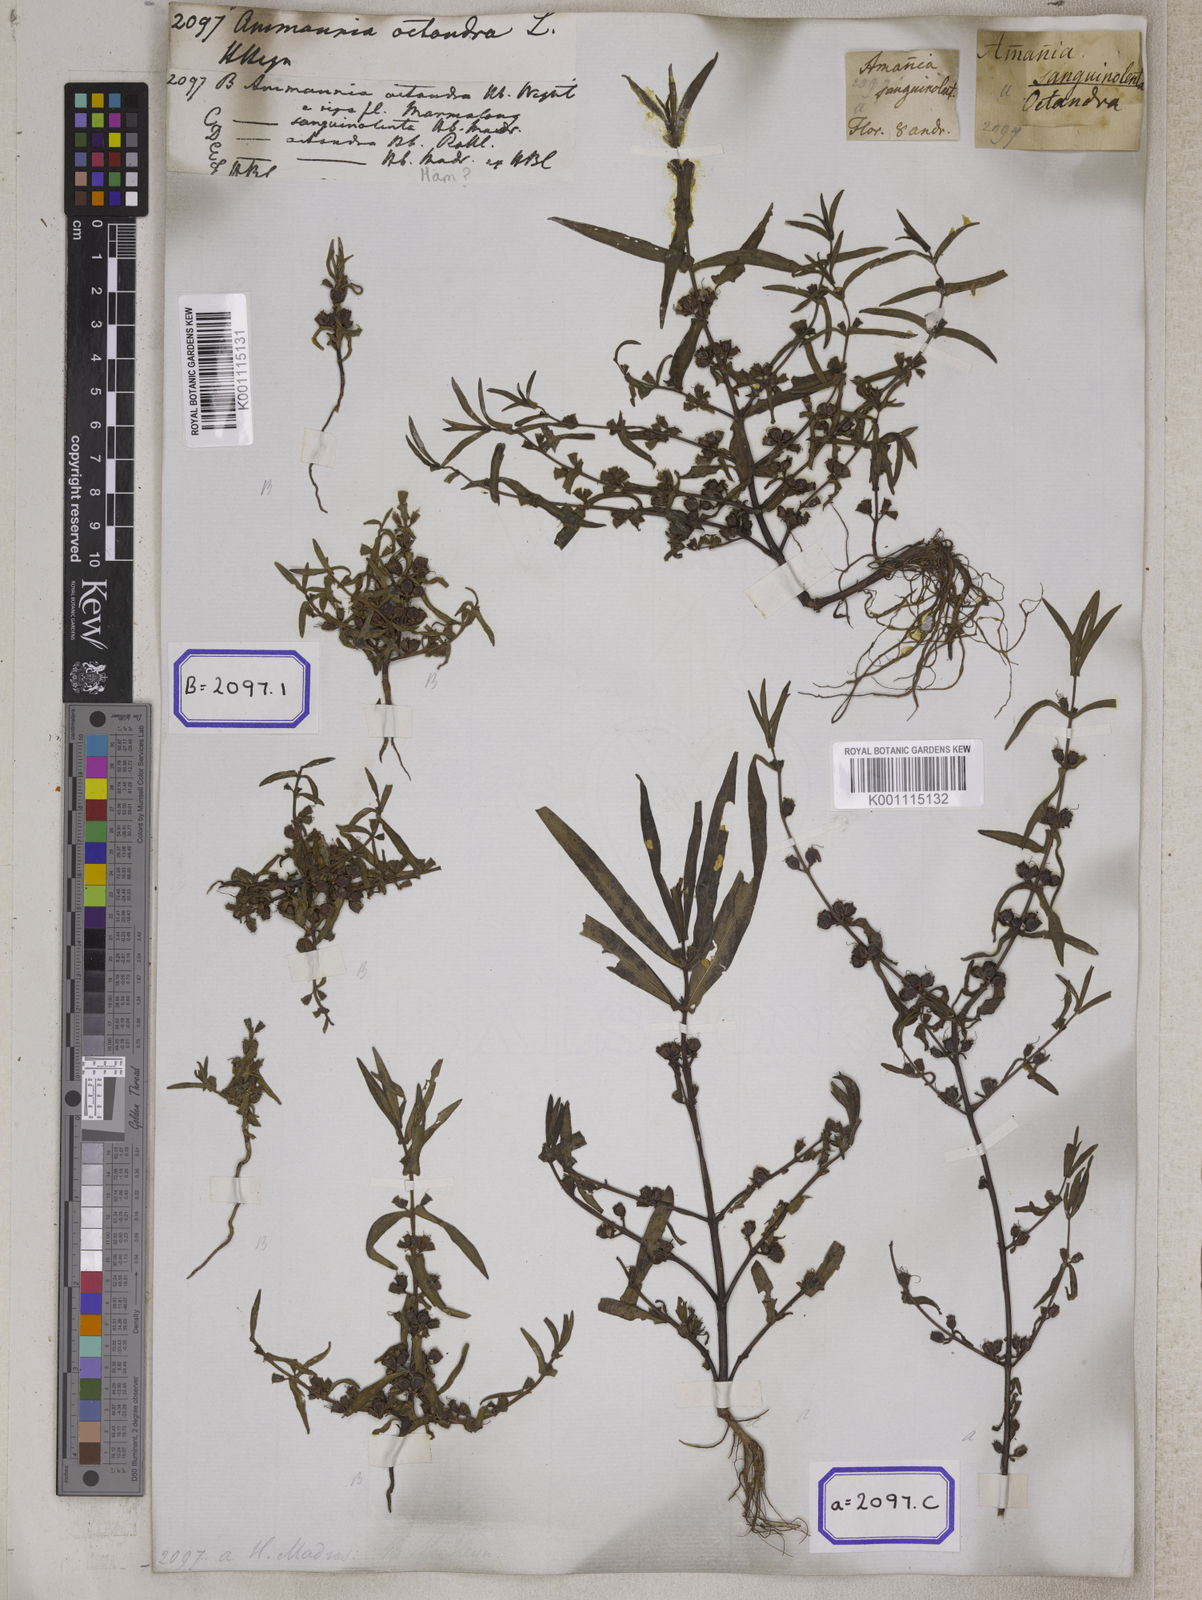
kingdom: Plantae
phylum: Tracheophyta
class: Magnoliopsida
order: Myrtales
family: Lythraceae
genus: Ammannia
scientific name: Ammannia octandra
